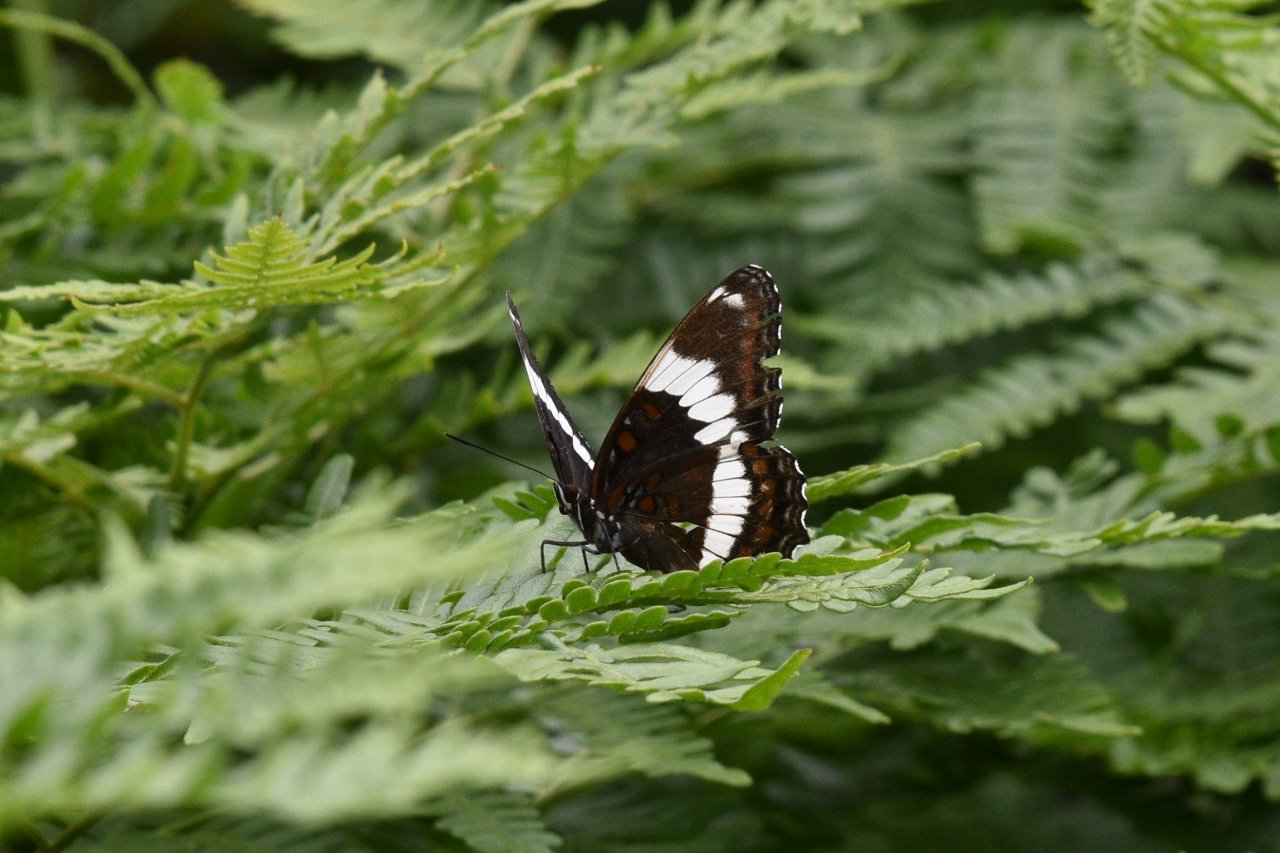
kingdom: Animalia
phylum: Arthropoda
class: Insecta
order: Lepidoptera
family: Nymphalidae
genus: Limenitis
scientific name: Limenitis arthemis
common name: Red-spotted Admiral
